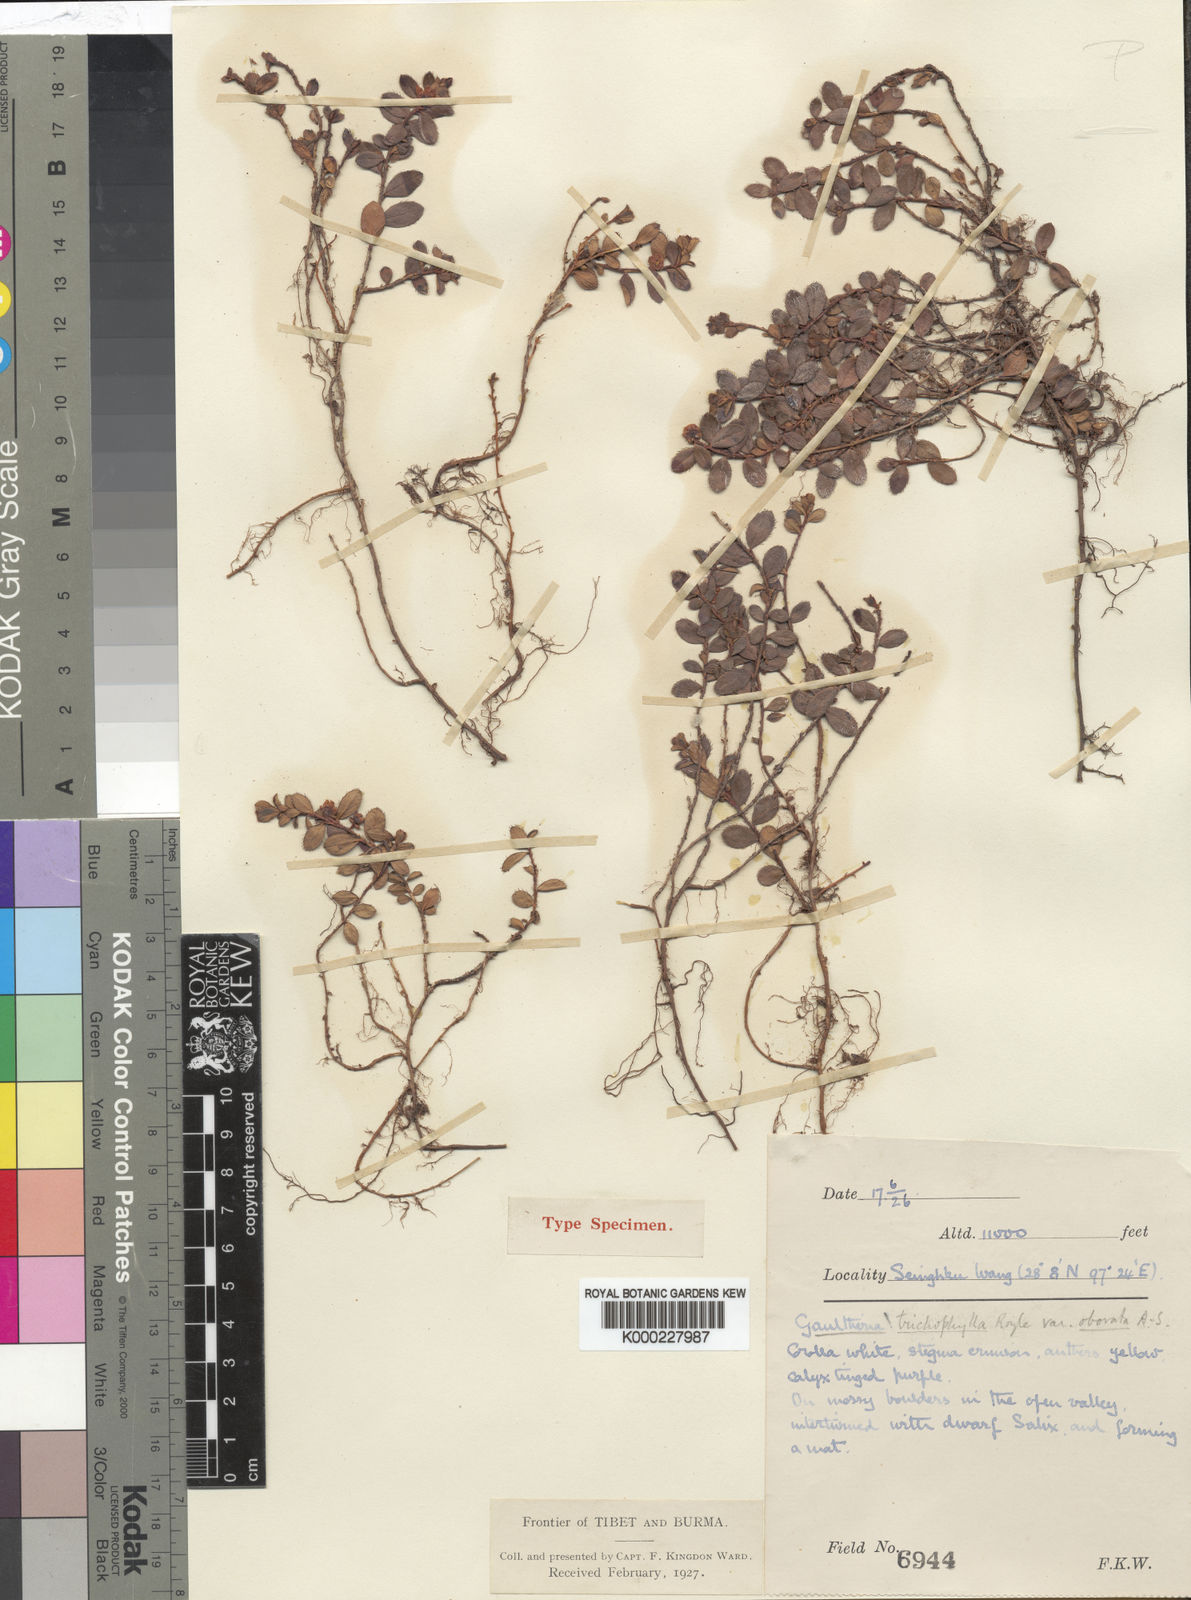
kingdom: Plantae
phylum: Tracheophyta
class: Magnoliopsida
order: Ericales
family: Ericaceae
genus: Gaultheria
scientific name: Gaultheria obovata
